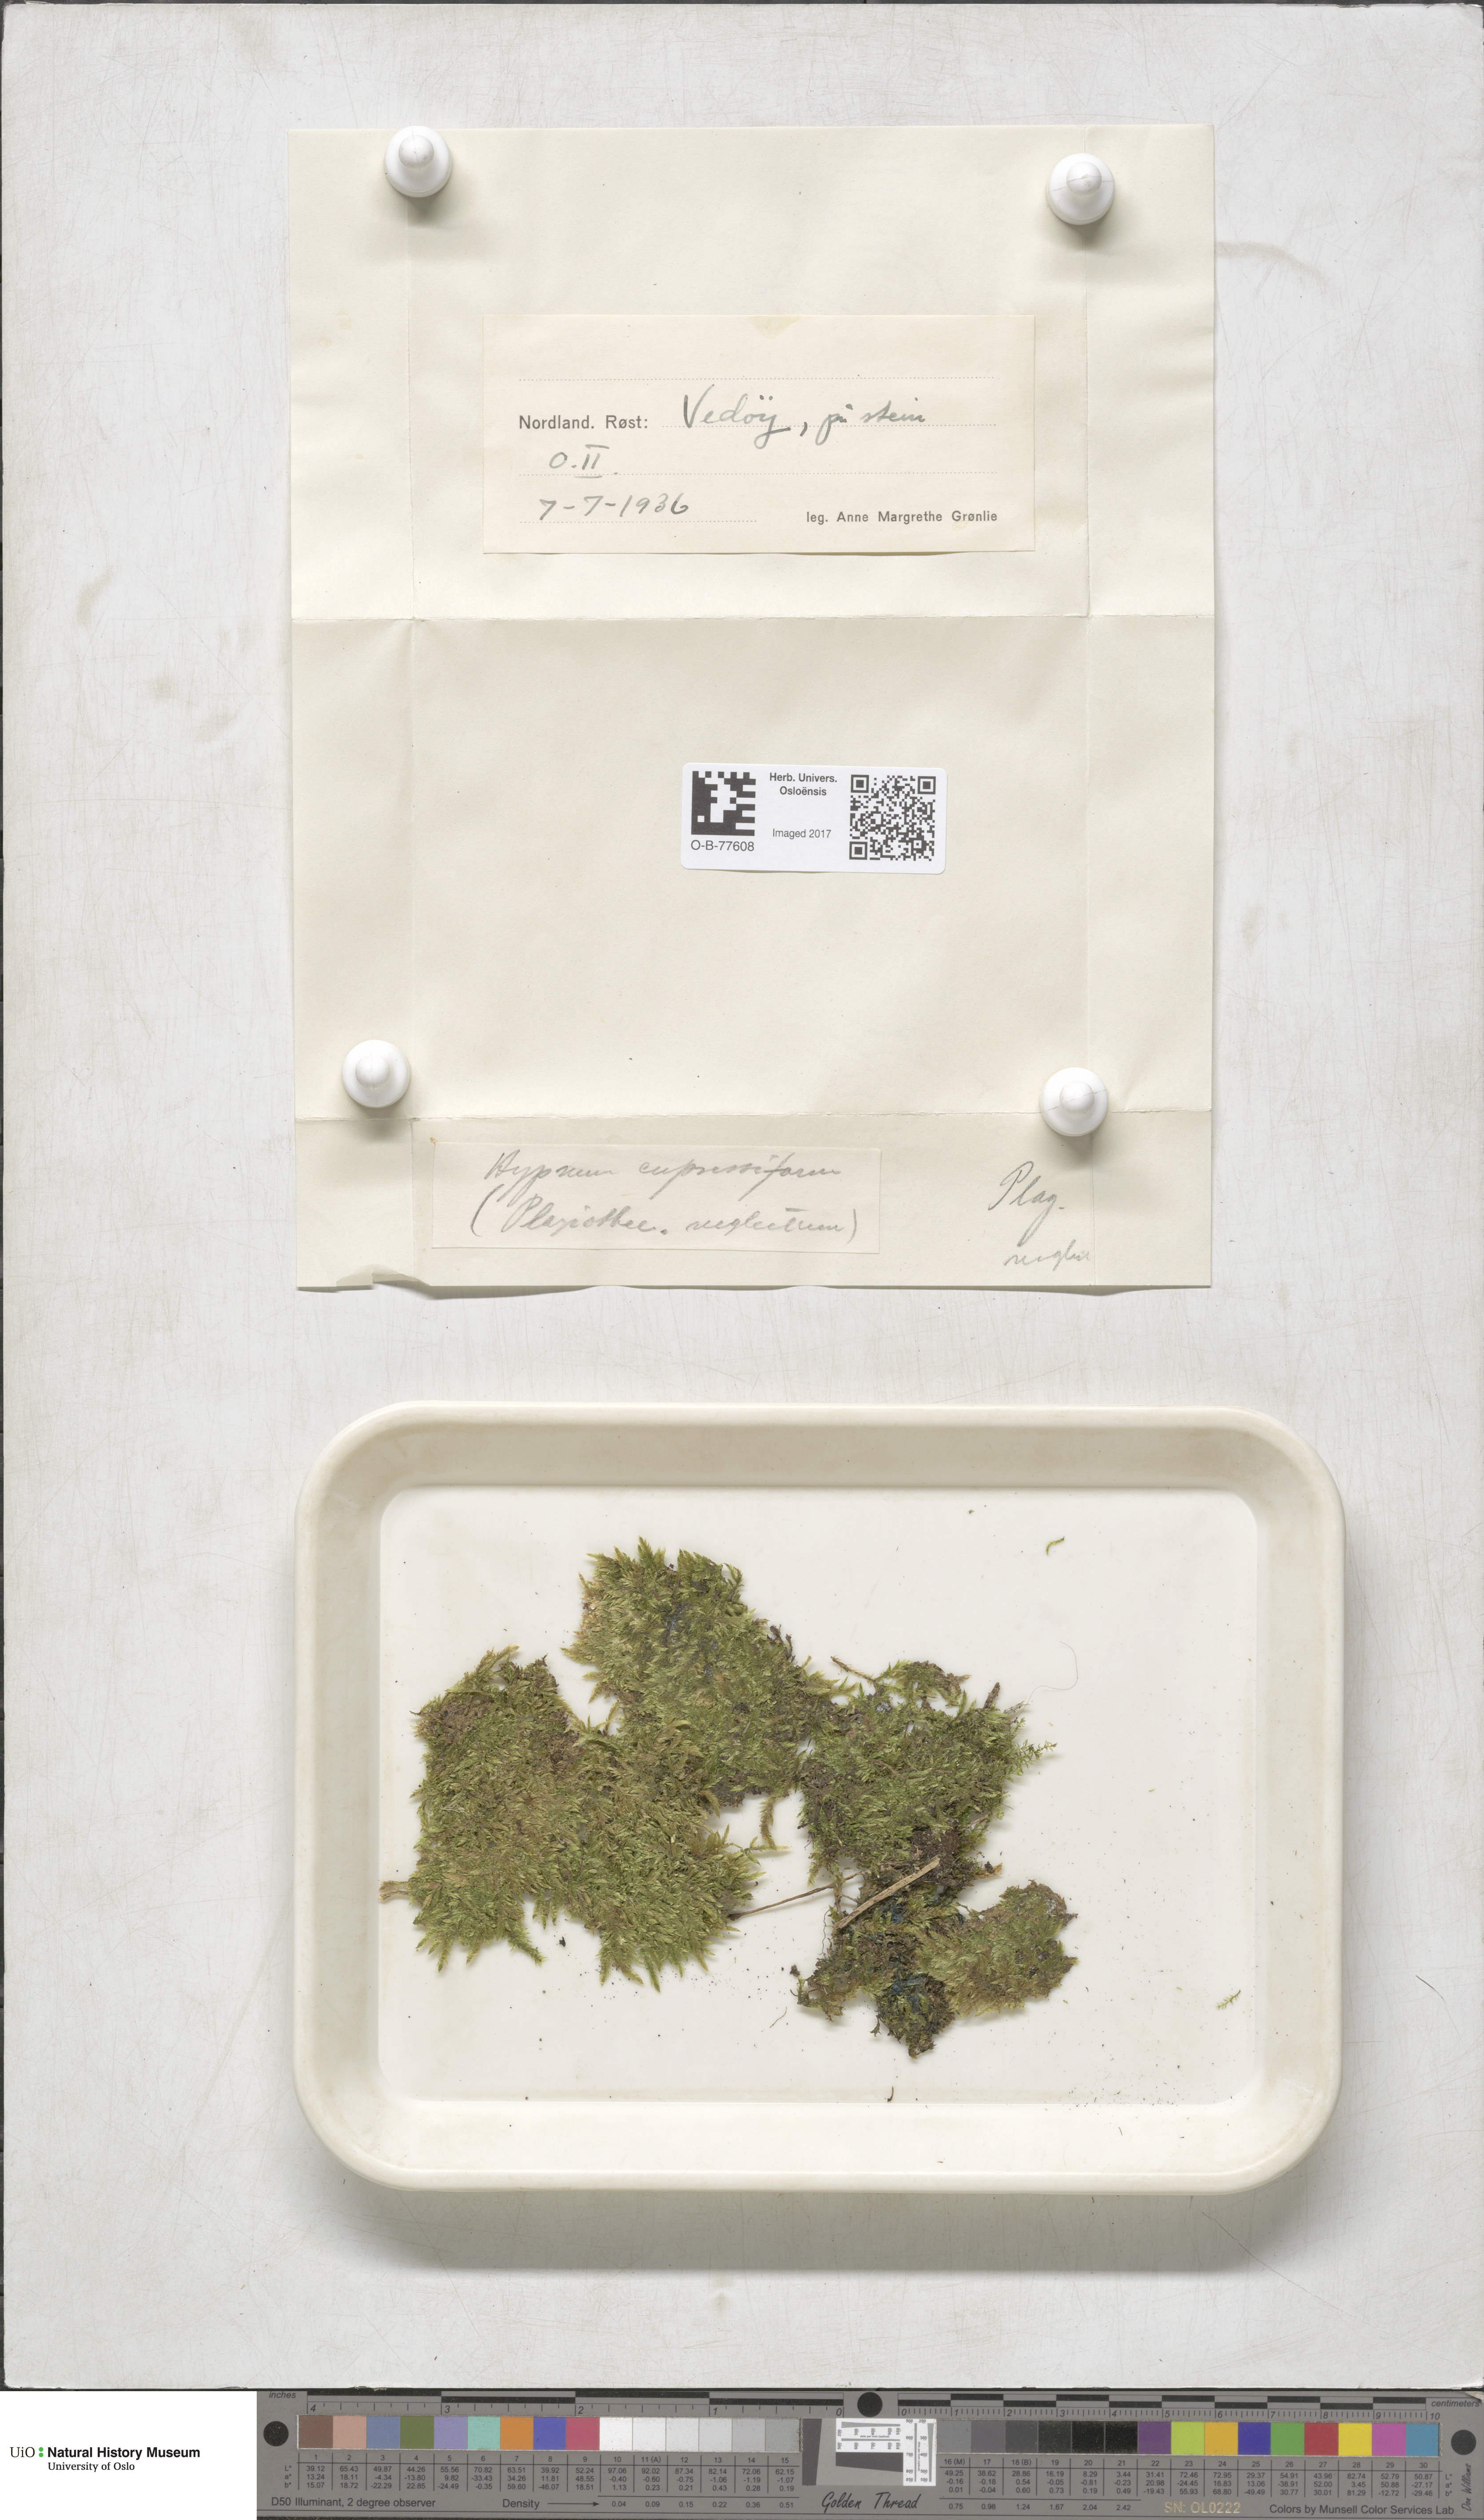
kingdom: Plantae
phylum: Bryophyta
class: Bryopsida
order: Hypnales
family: Hypnaceae
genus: Hypnum
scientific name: Hypnum cupressiforme
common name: Cypress-leaved plait-moss
